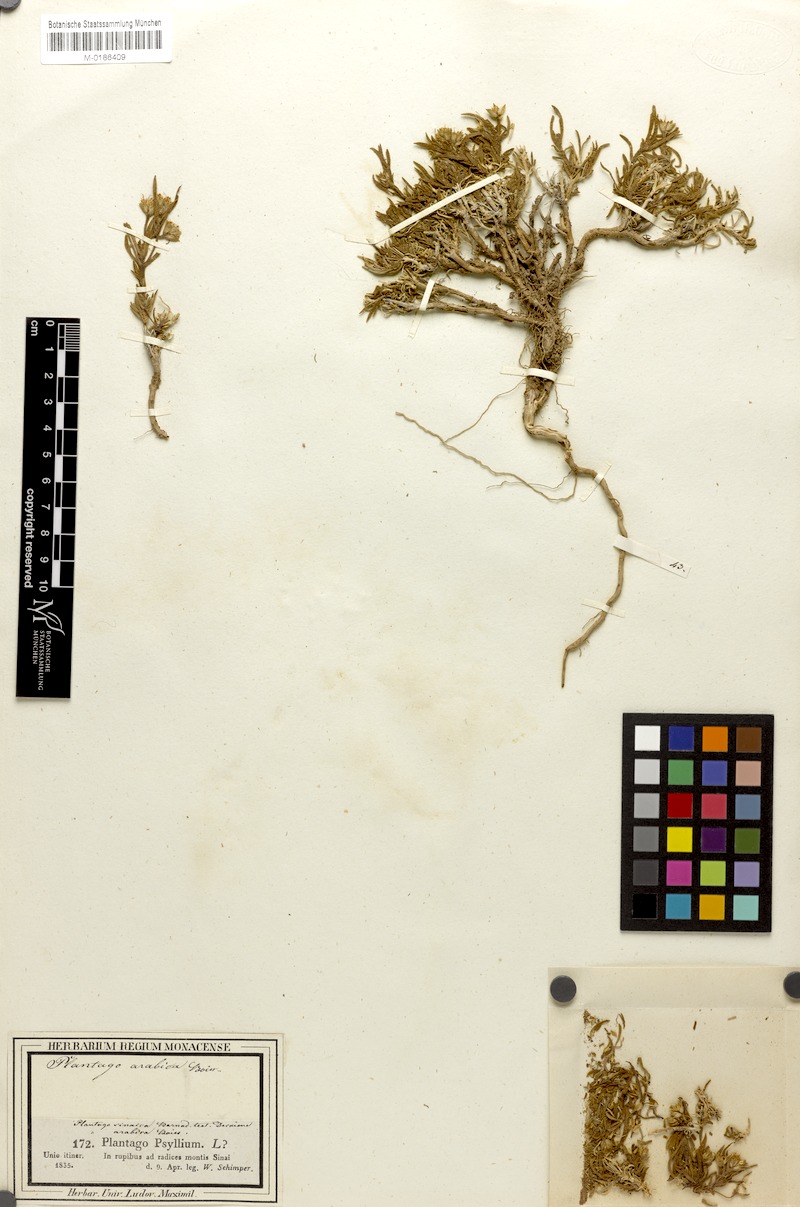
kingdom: Plantae
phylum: Tracheophyta
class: Magnoliopsida
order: Lamiales
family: Plantaginaceae
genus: Plantago
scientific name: Plantago sinaica
